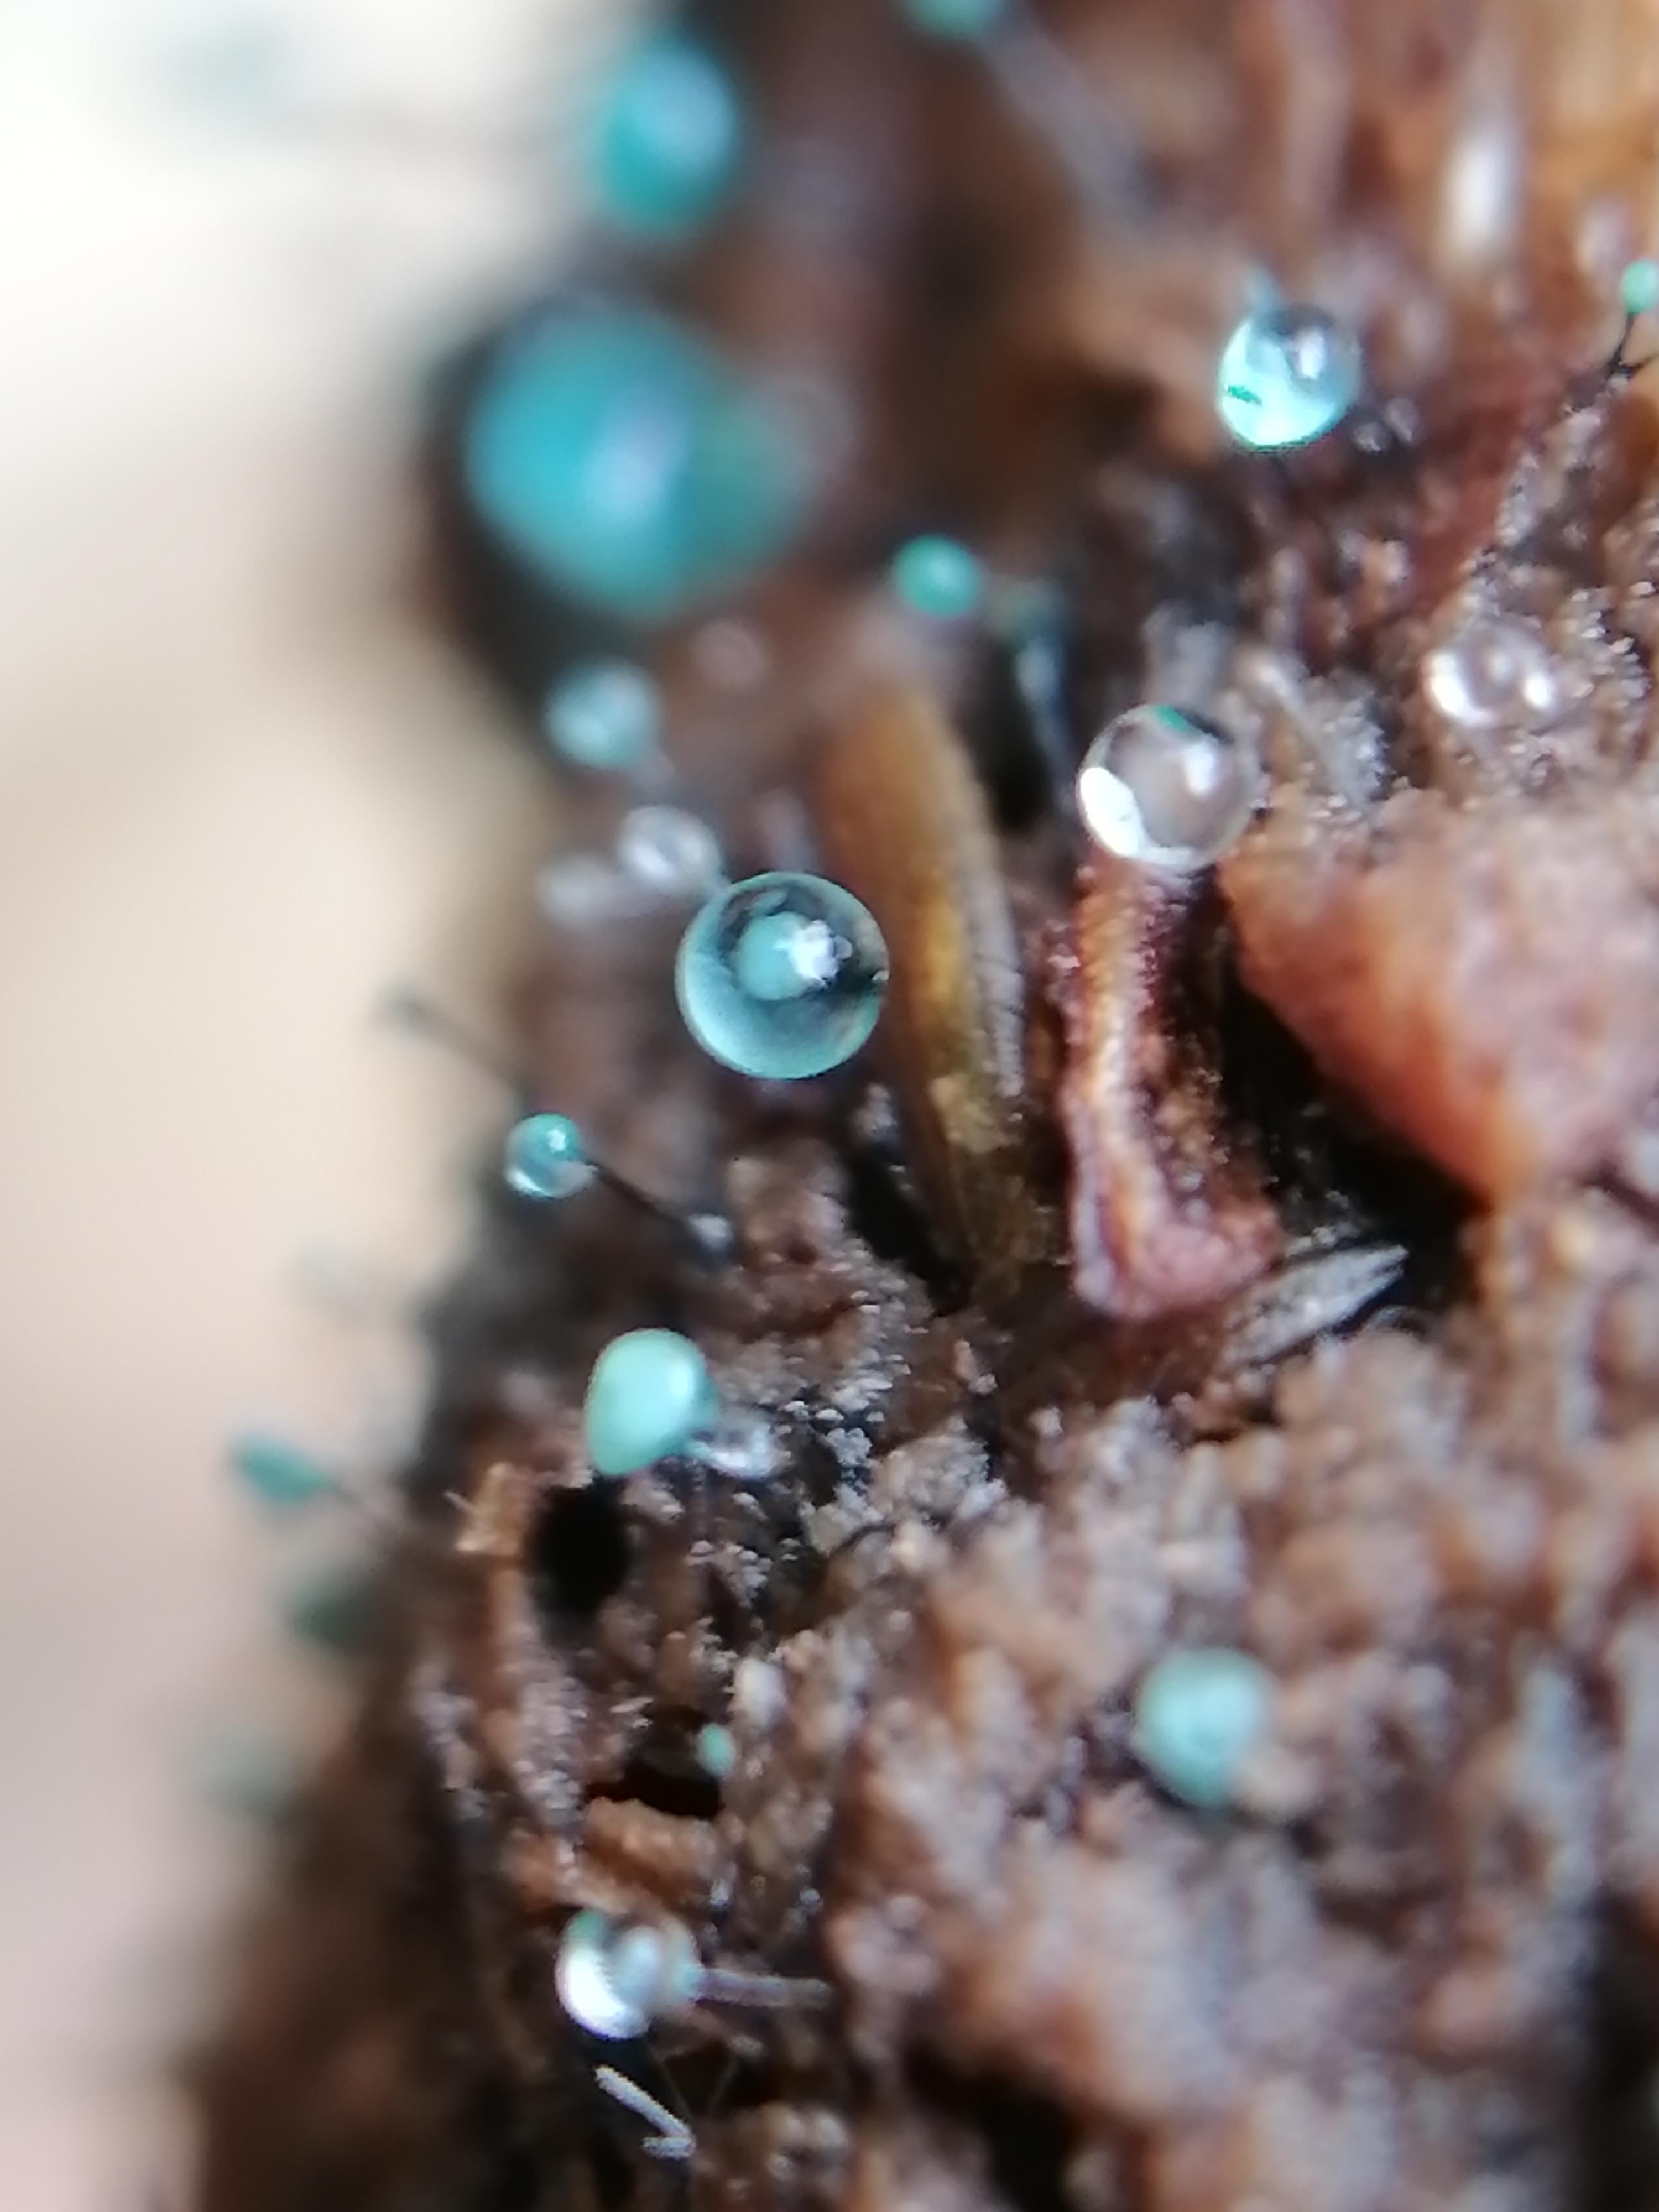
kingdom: Fungi
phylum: Ascomycota
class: Leotiomycetes
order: Leotiales
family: Tympanidaceae
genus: Dendrostilbella
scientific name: Dendrostilbella smaragdina
